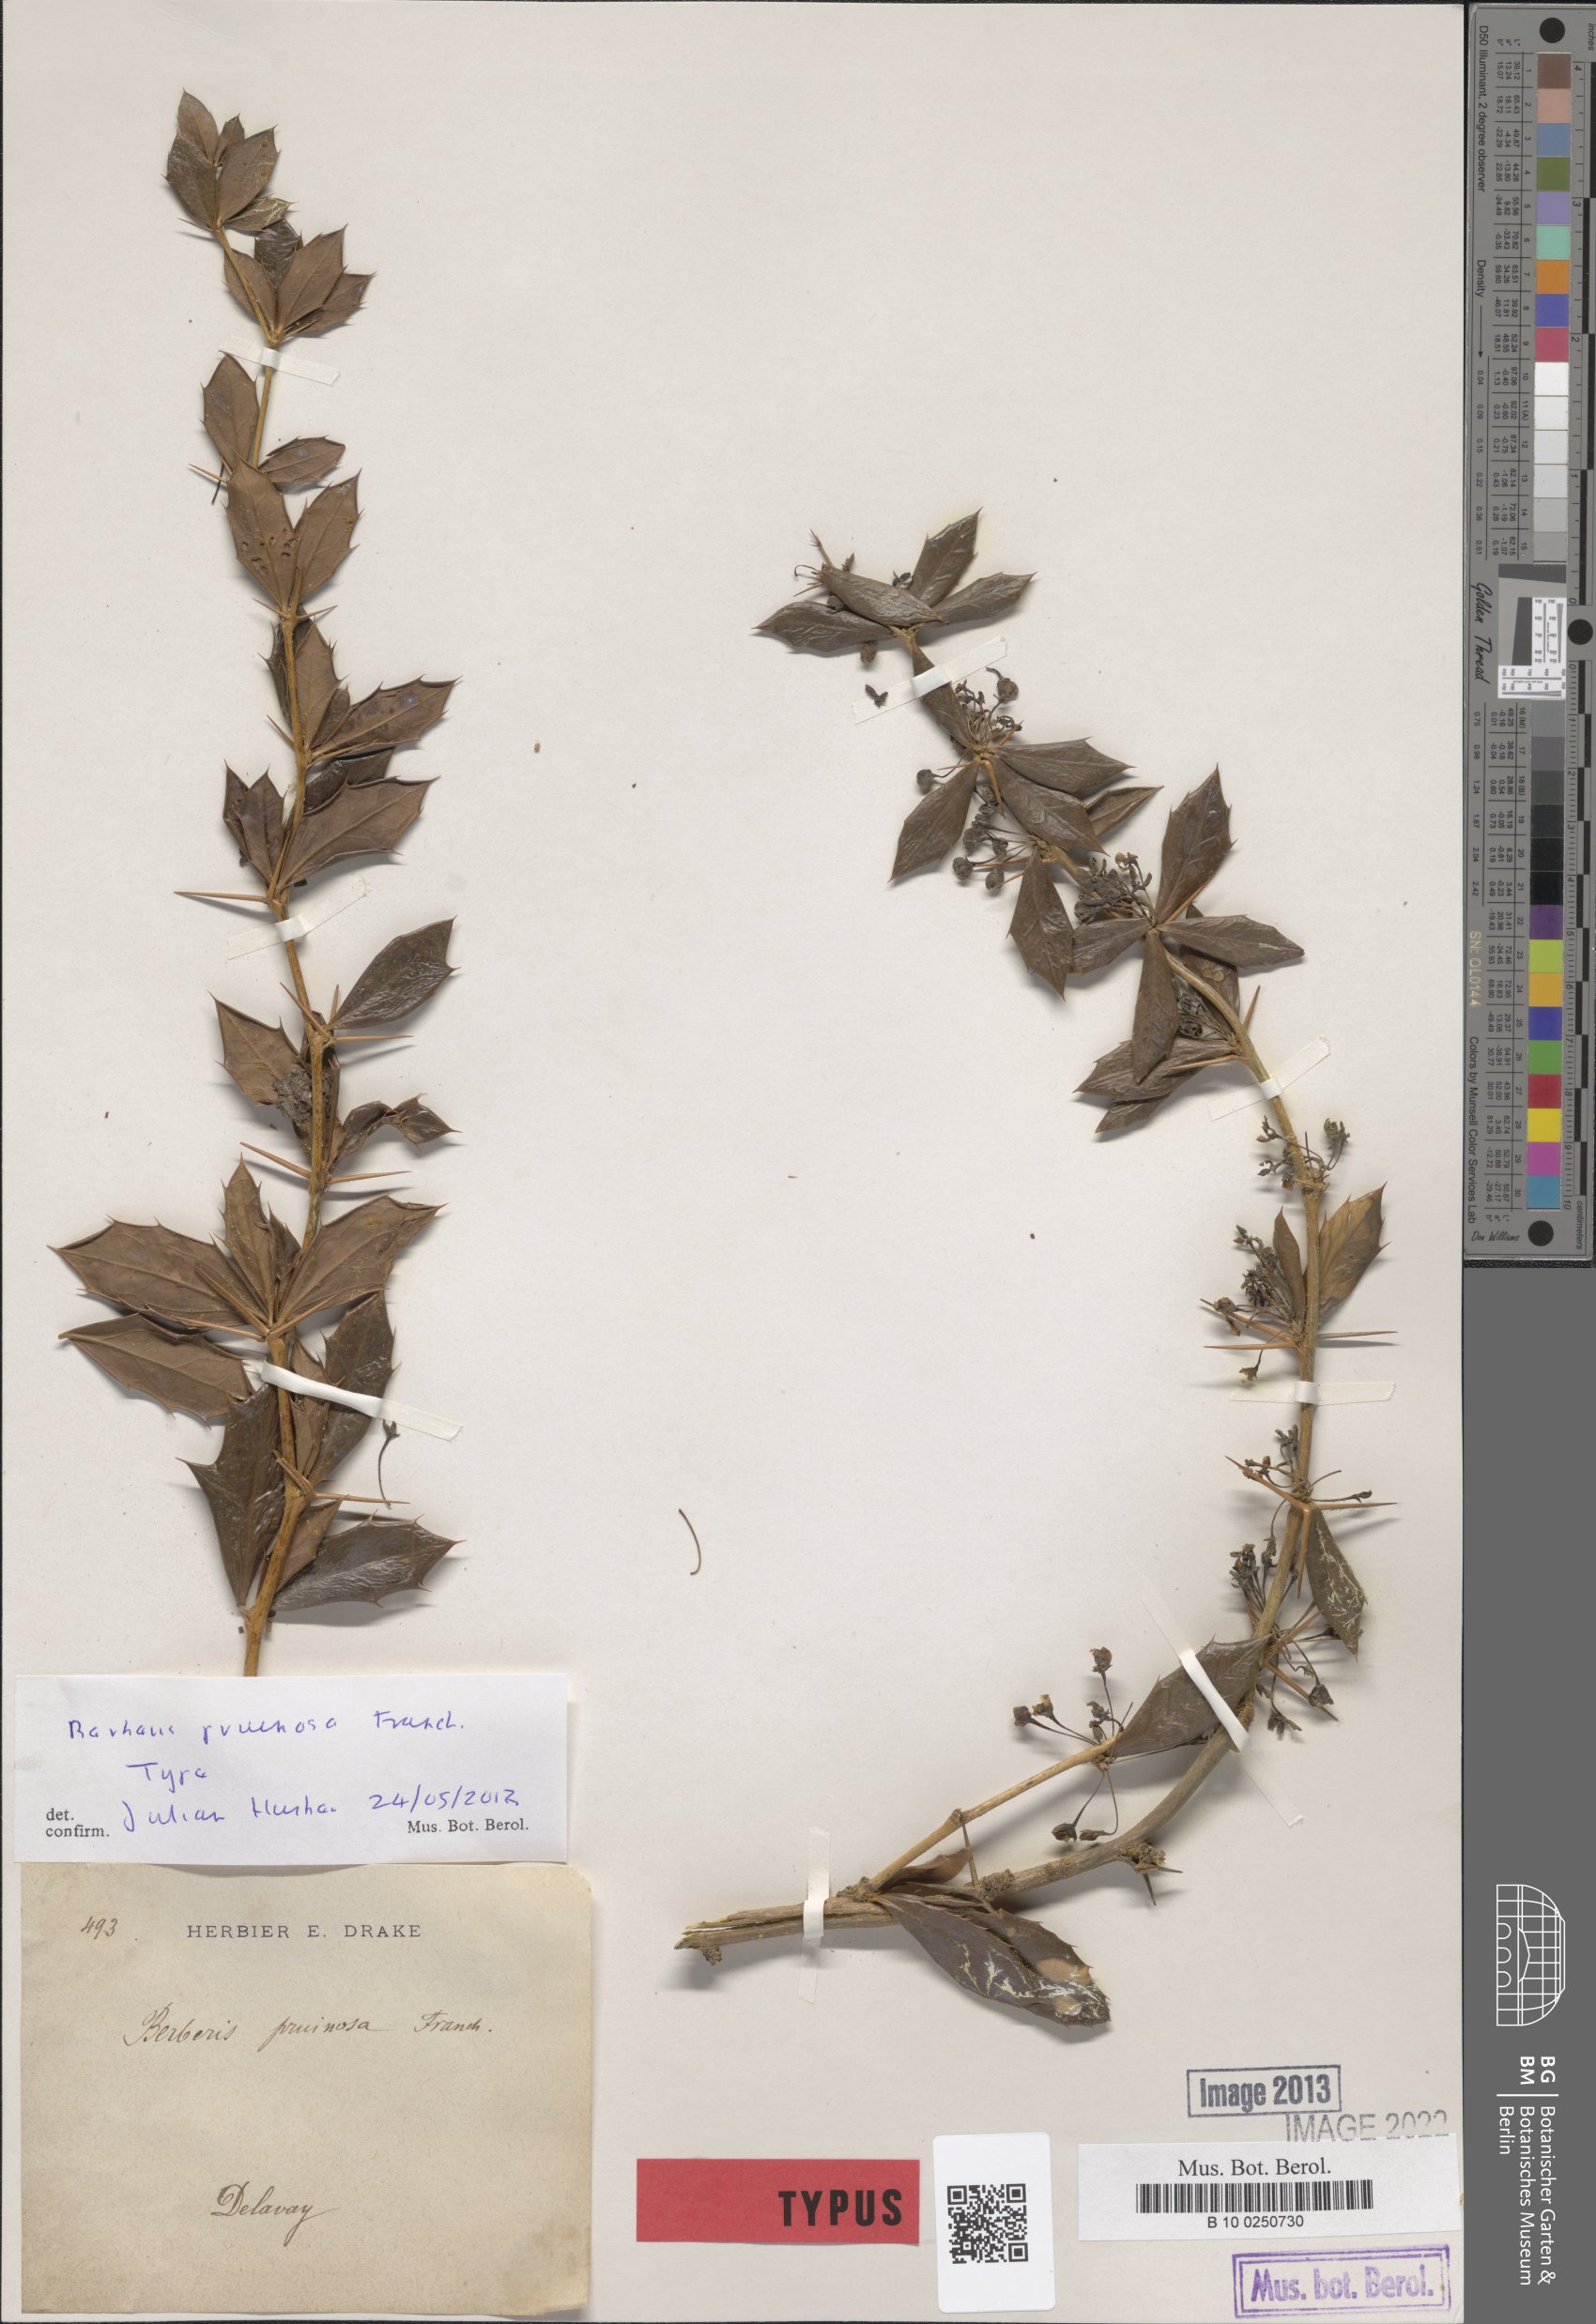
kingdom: Plantae
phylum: Tracheophyta
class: Magnoliopsida
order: Ranunculales
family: Berberidaceae
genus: Berberis
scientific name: Berberis pruinosa
